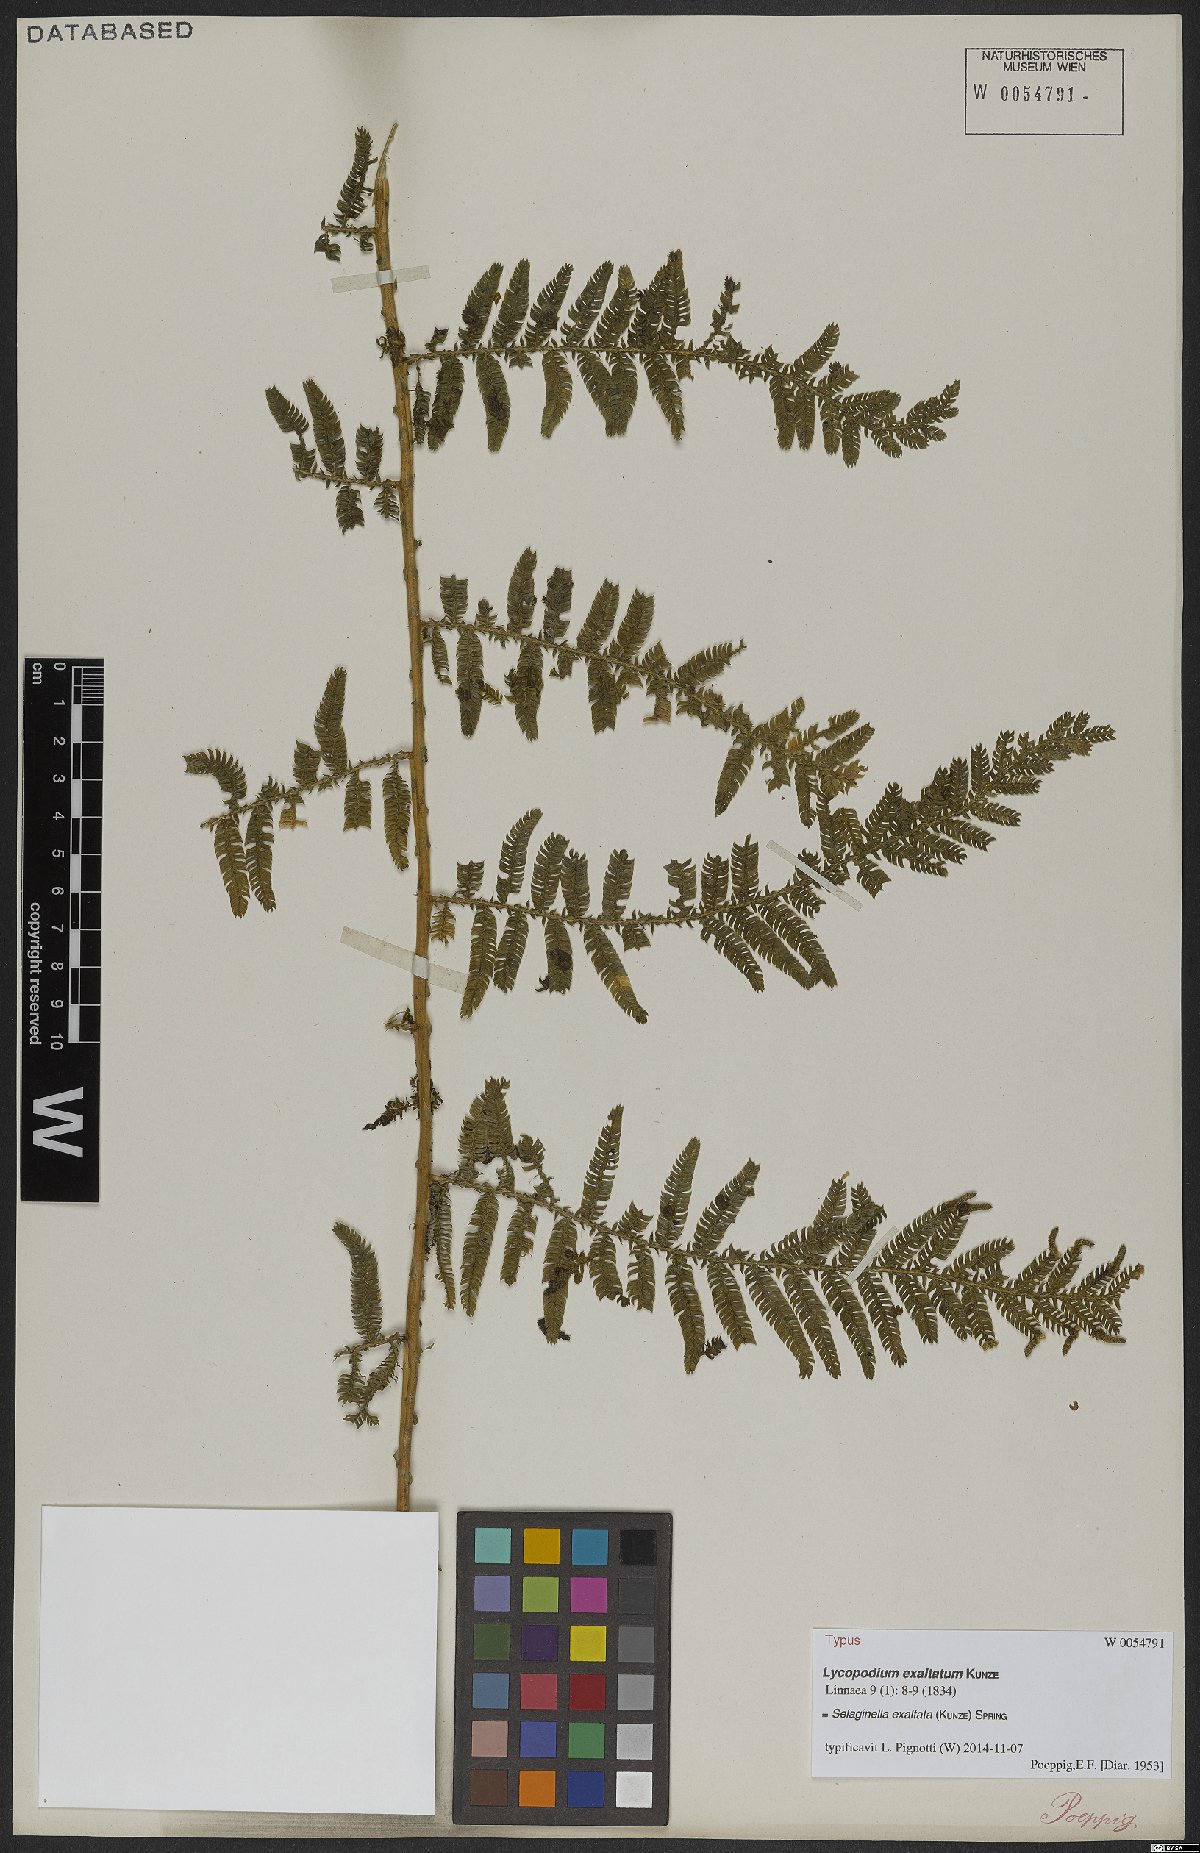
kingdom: Plantae
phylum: Tracheophyta
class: Lycopodiopsida
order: Selaginellales
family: Selaginellaceae
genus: Selaginella
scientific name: Selaginella exaltata
